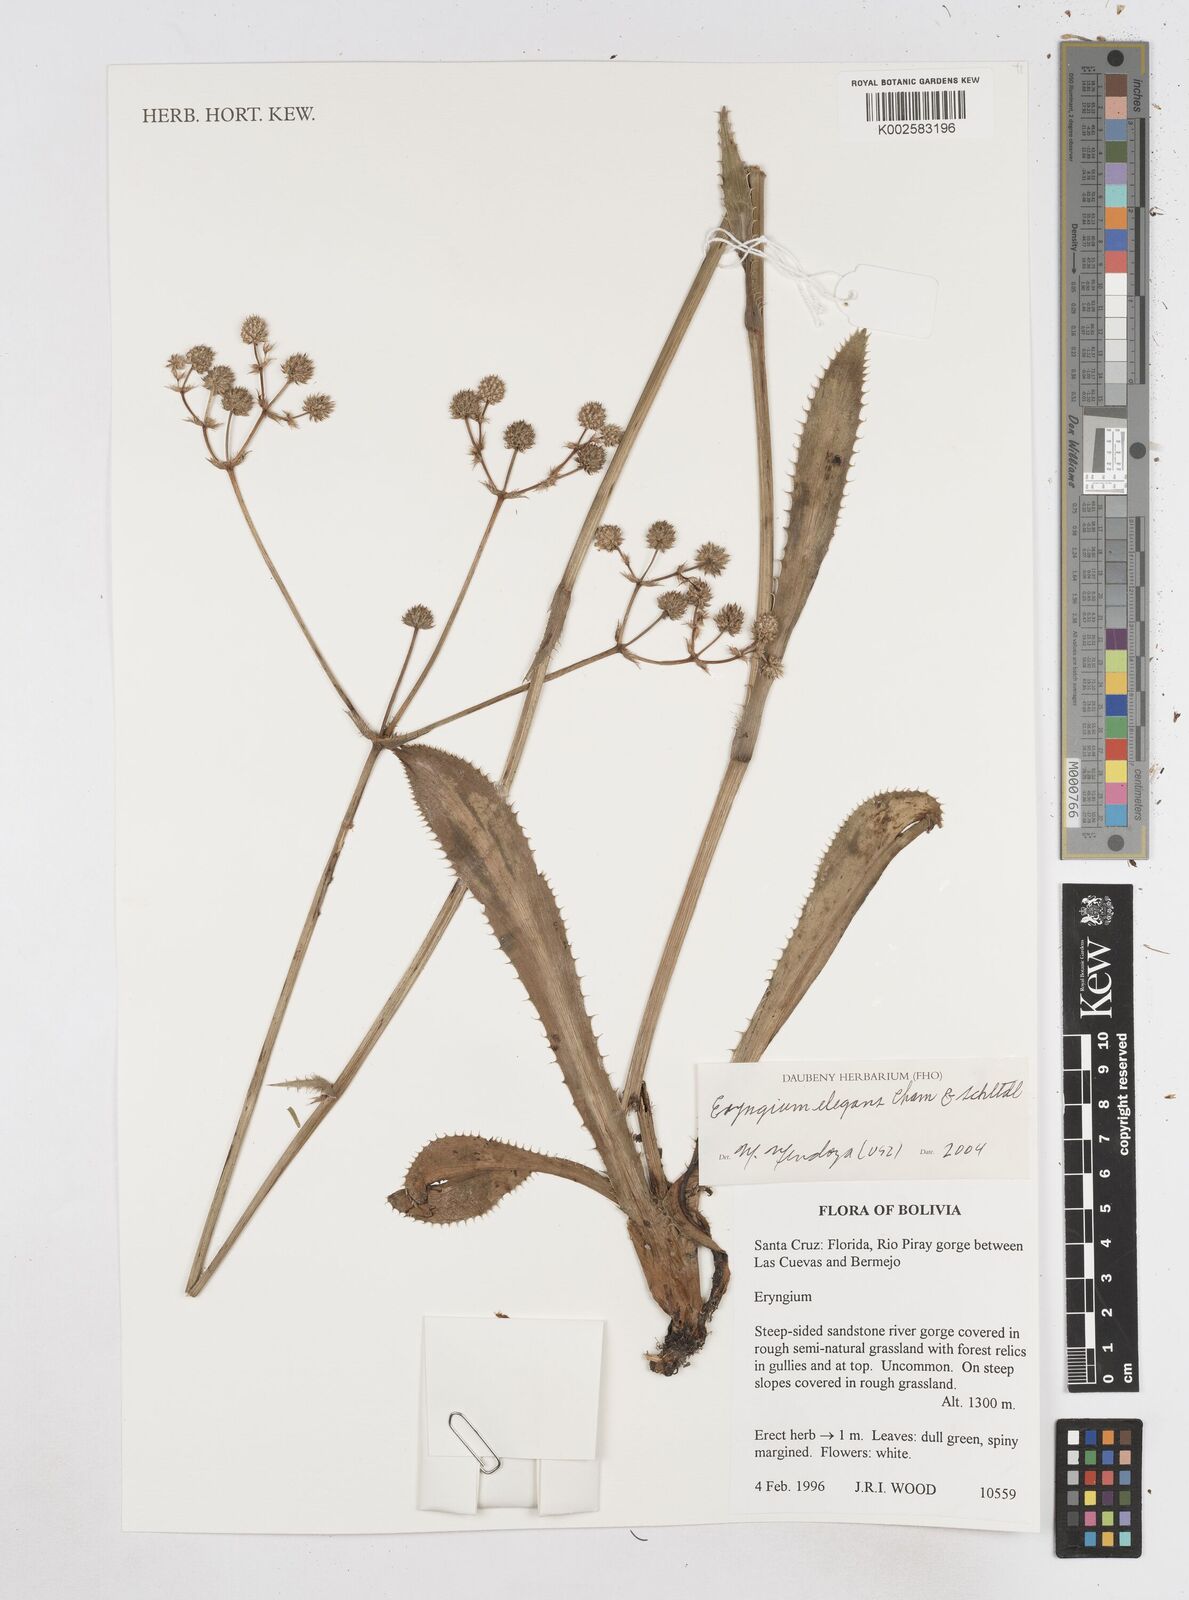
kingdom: Plantae
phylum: Tracheophyta
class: Magnoliopsida
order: Apiales
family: Apiaceae
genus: Eryngium
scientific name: Eryngium elegans
